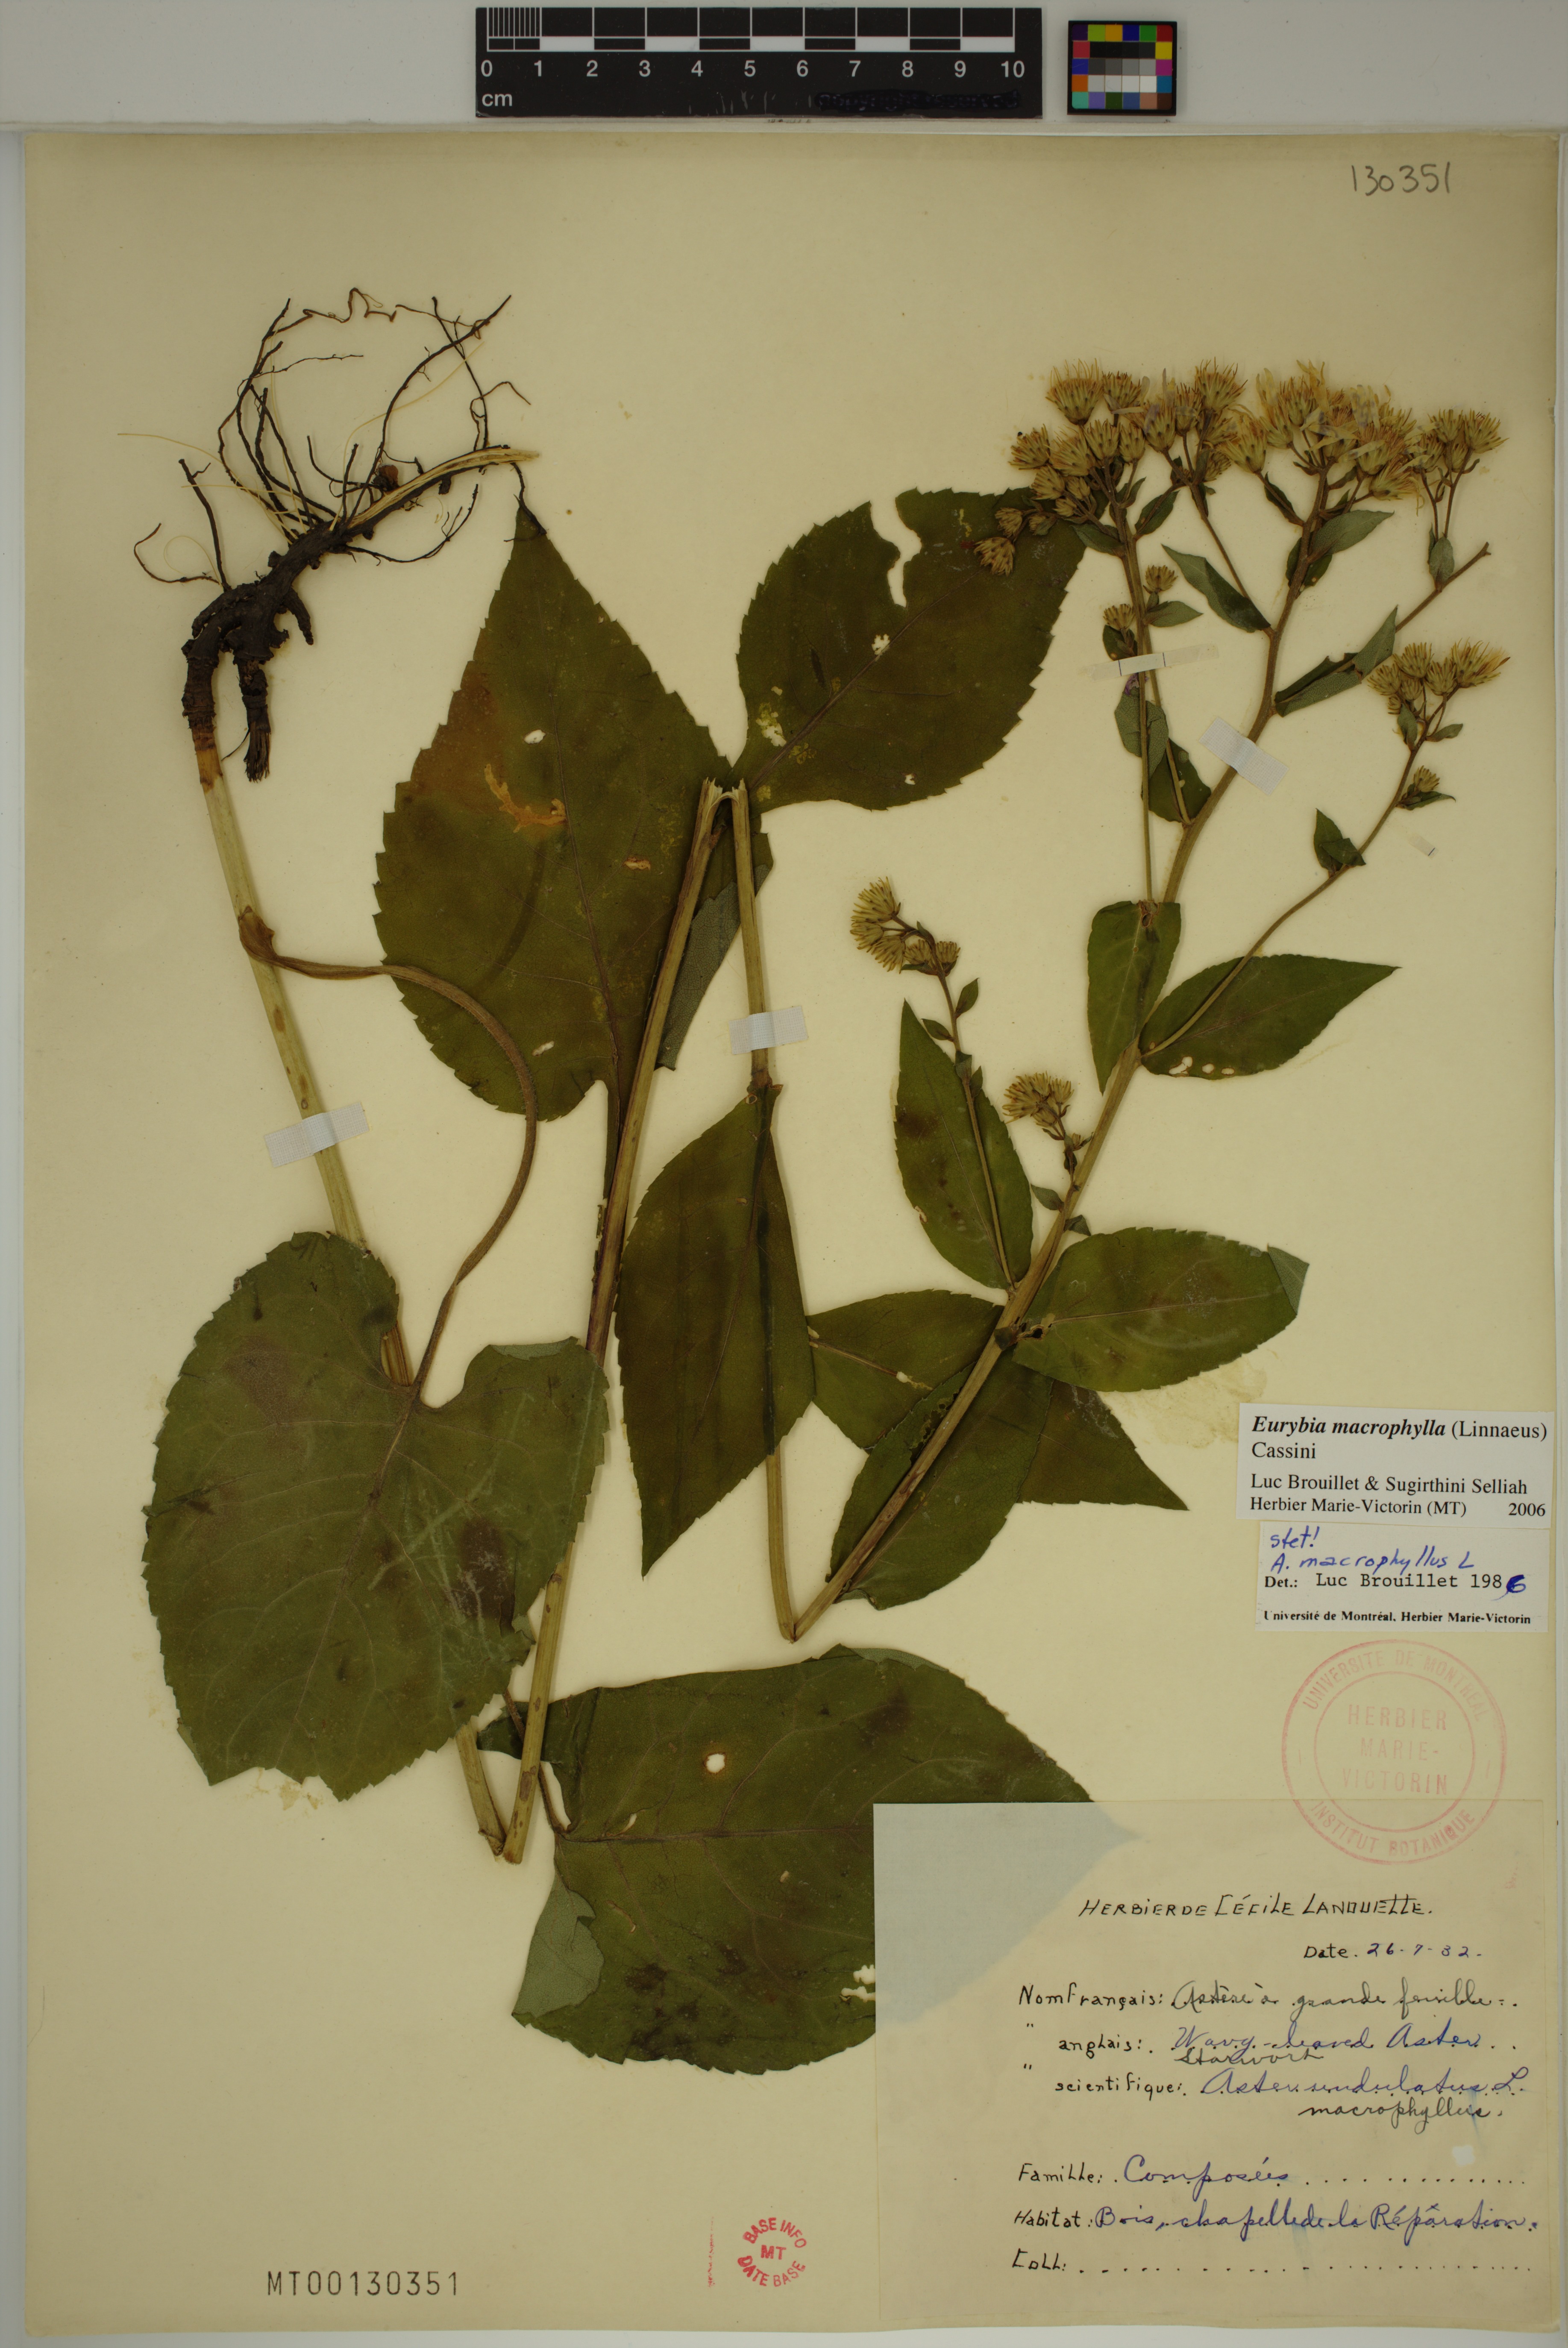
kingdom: Plantae
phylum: Tracheophyta
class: Magnoliopsida
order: Asterales
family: Asteraceae
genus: Eurybia
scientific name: Eurybia macrophylla
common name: Big-leaved aster
